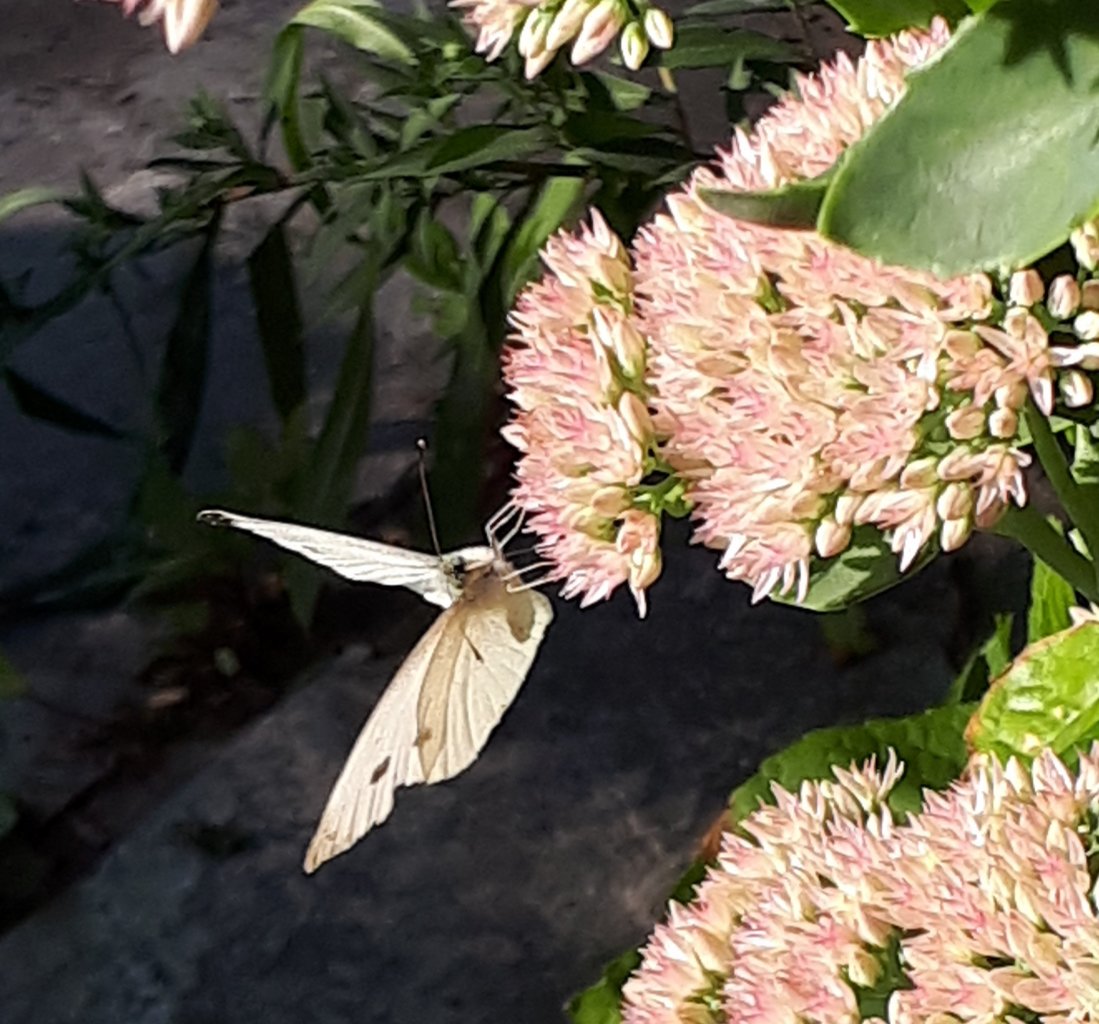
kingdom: Animalia
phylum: Arthropoda
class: Insecta
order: Lepidoptera
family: Pieridae
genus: Pieris
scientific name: Pieris rapae
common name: Cabbage White
